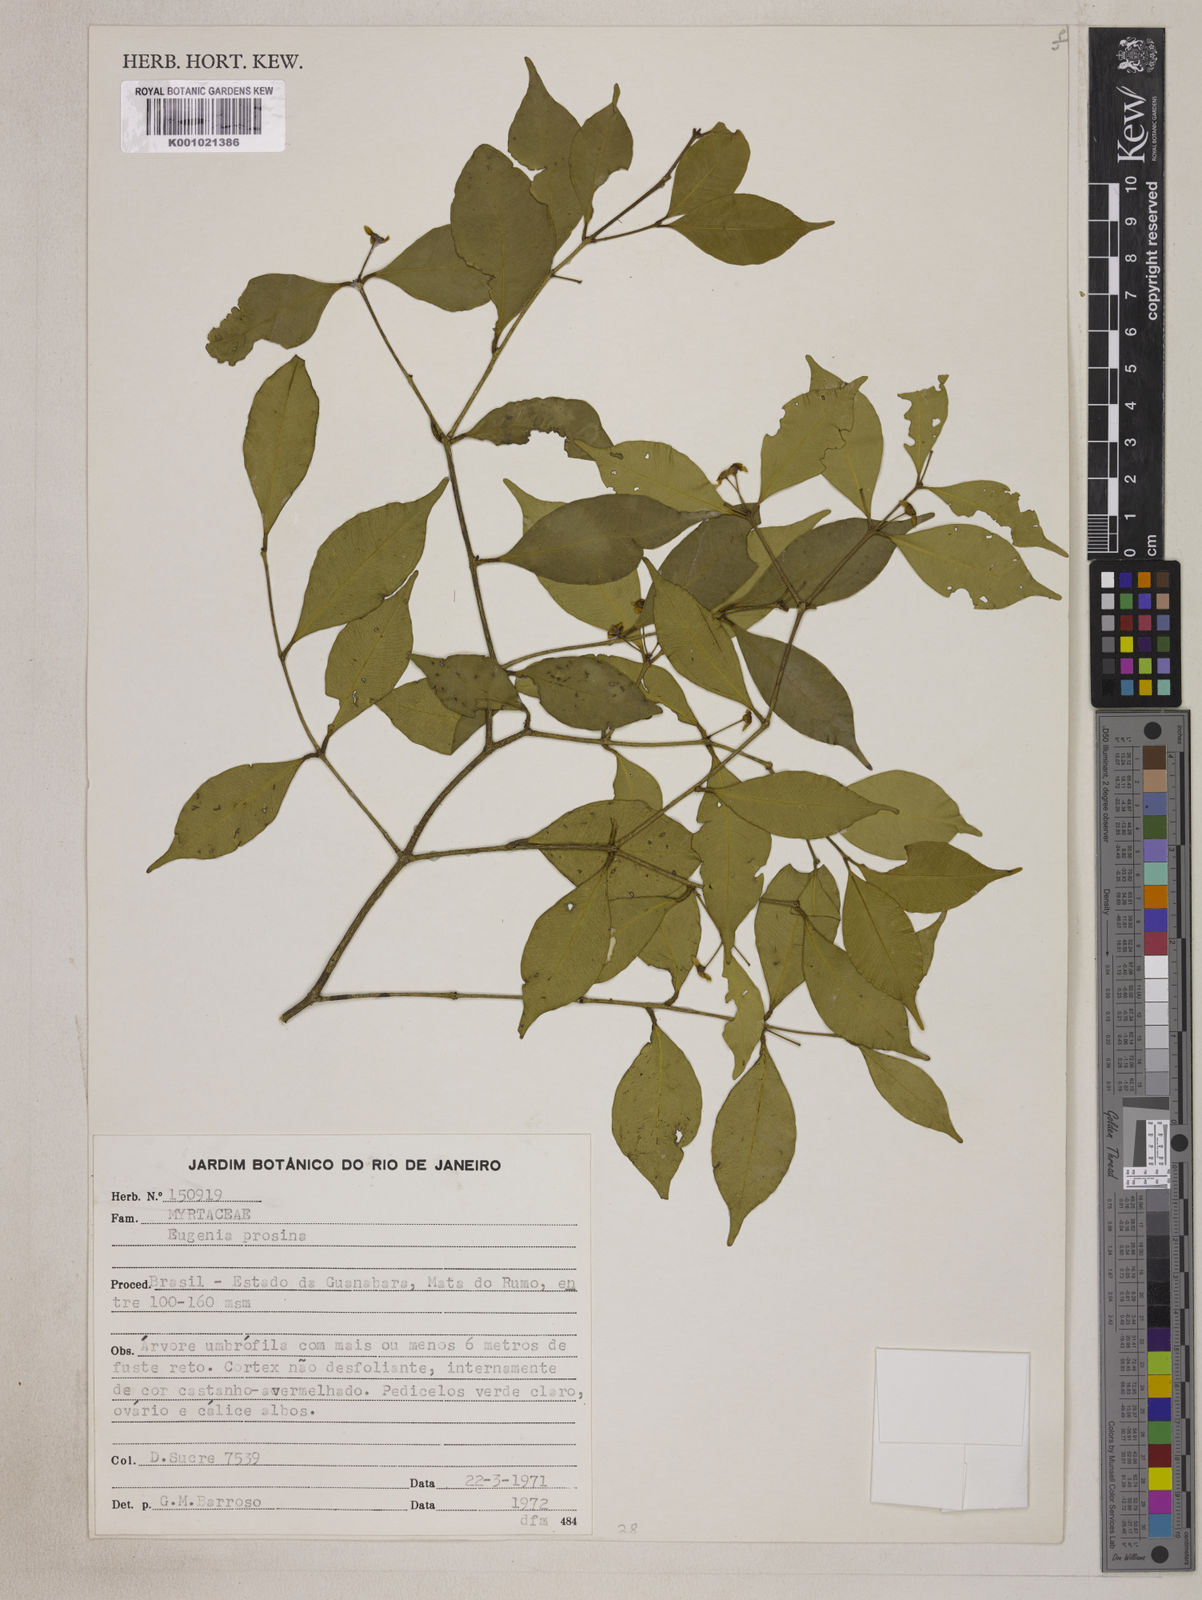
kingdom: Plantae
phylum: Tracheophyta
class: Magnoliopsida
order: Myrtales
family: Myrtaceae
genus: Eugenia
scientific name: Eugenia prasina
